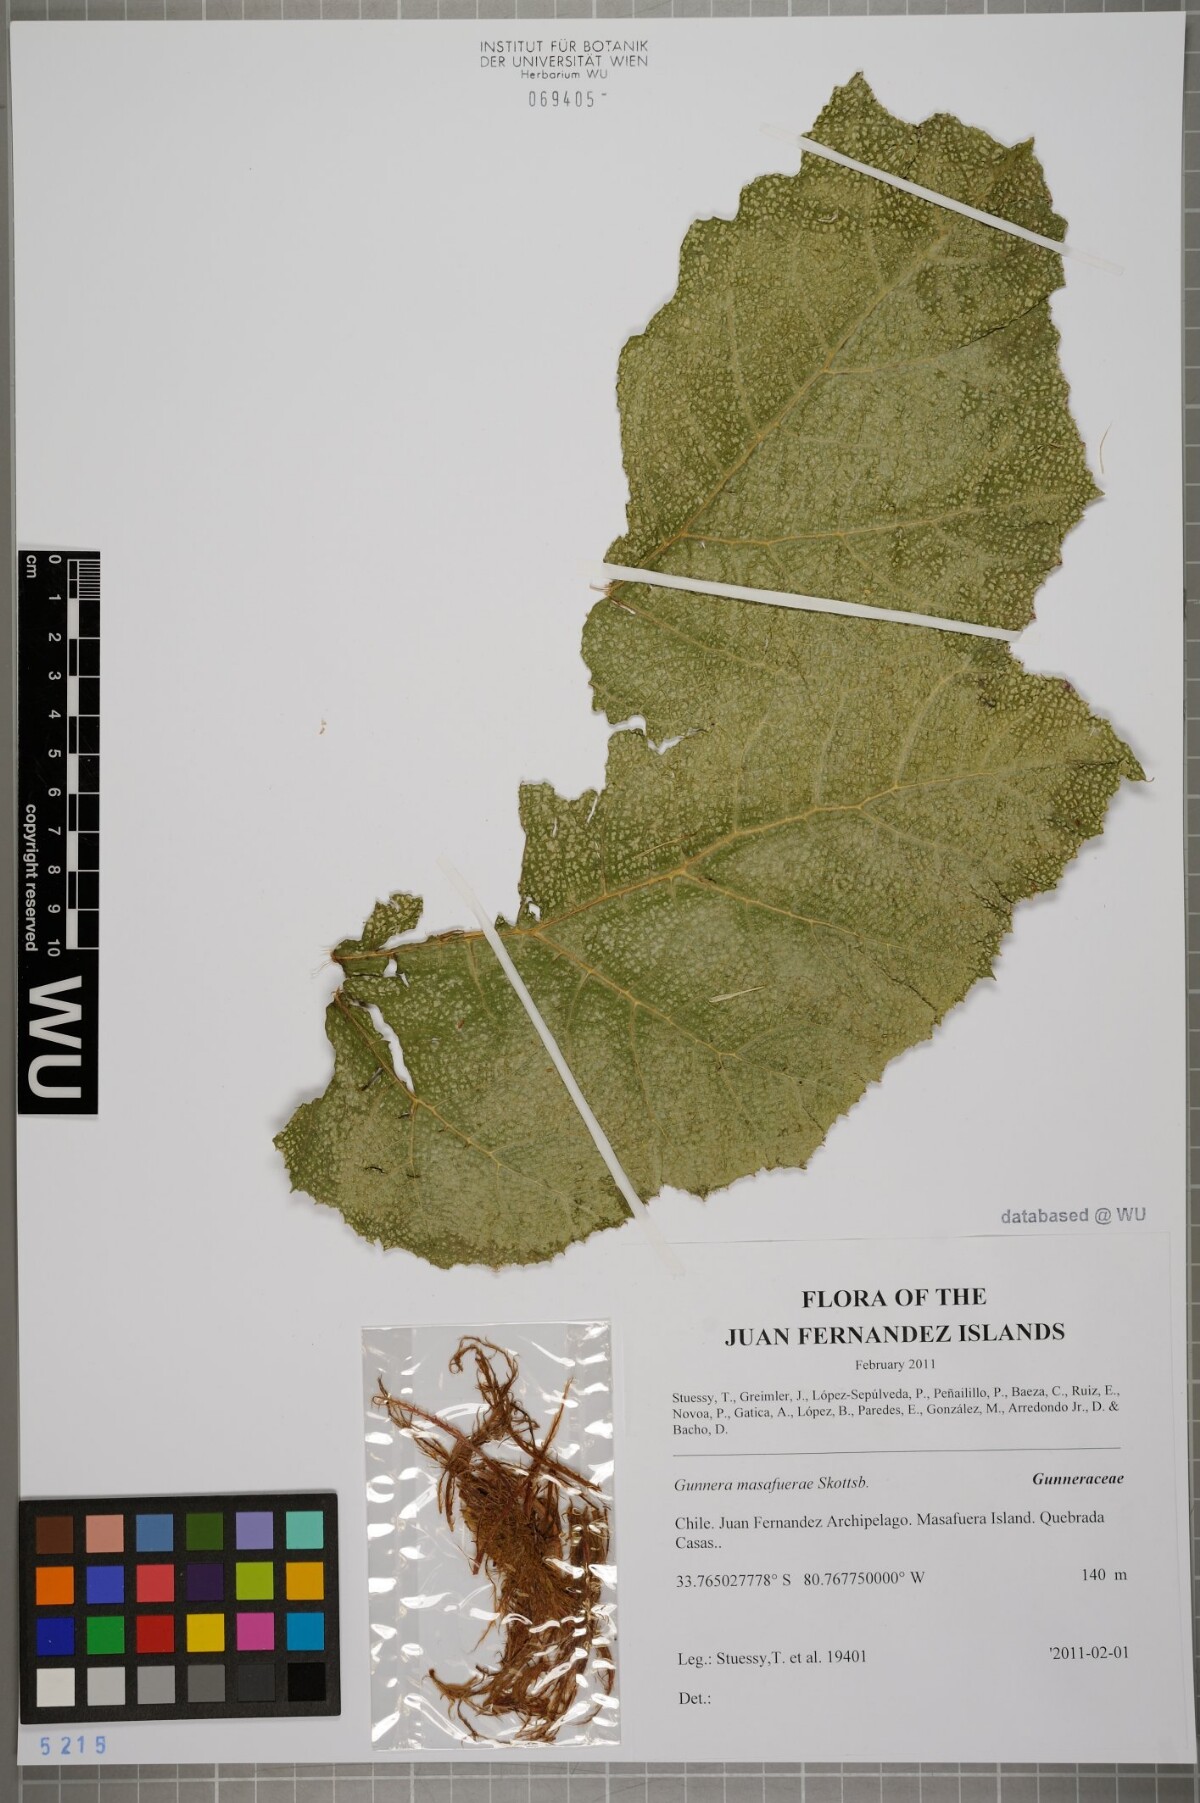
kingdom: Plantae
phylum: Tracheophyta
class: Magnoliopsida
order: Gunnerales
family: Gunneraceae
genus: Gunnera
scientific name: Gunnera masafuerae
